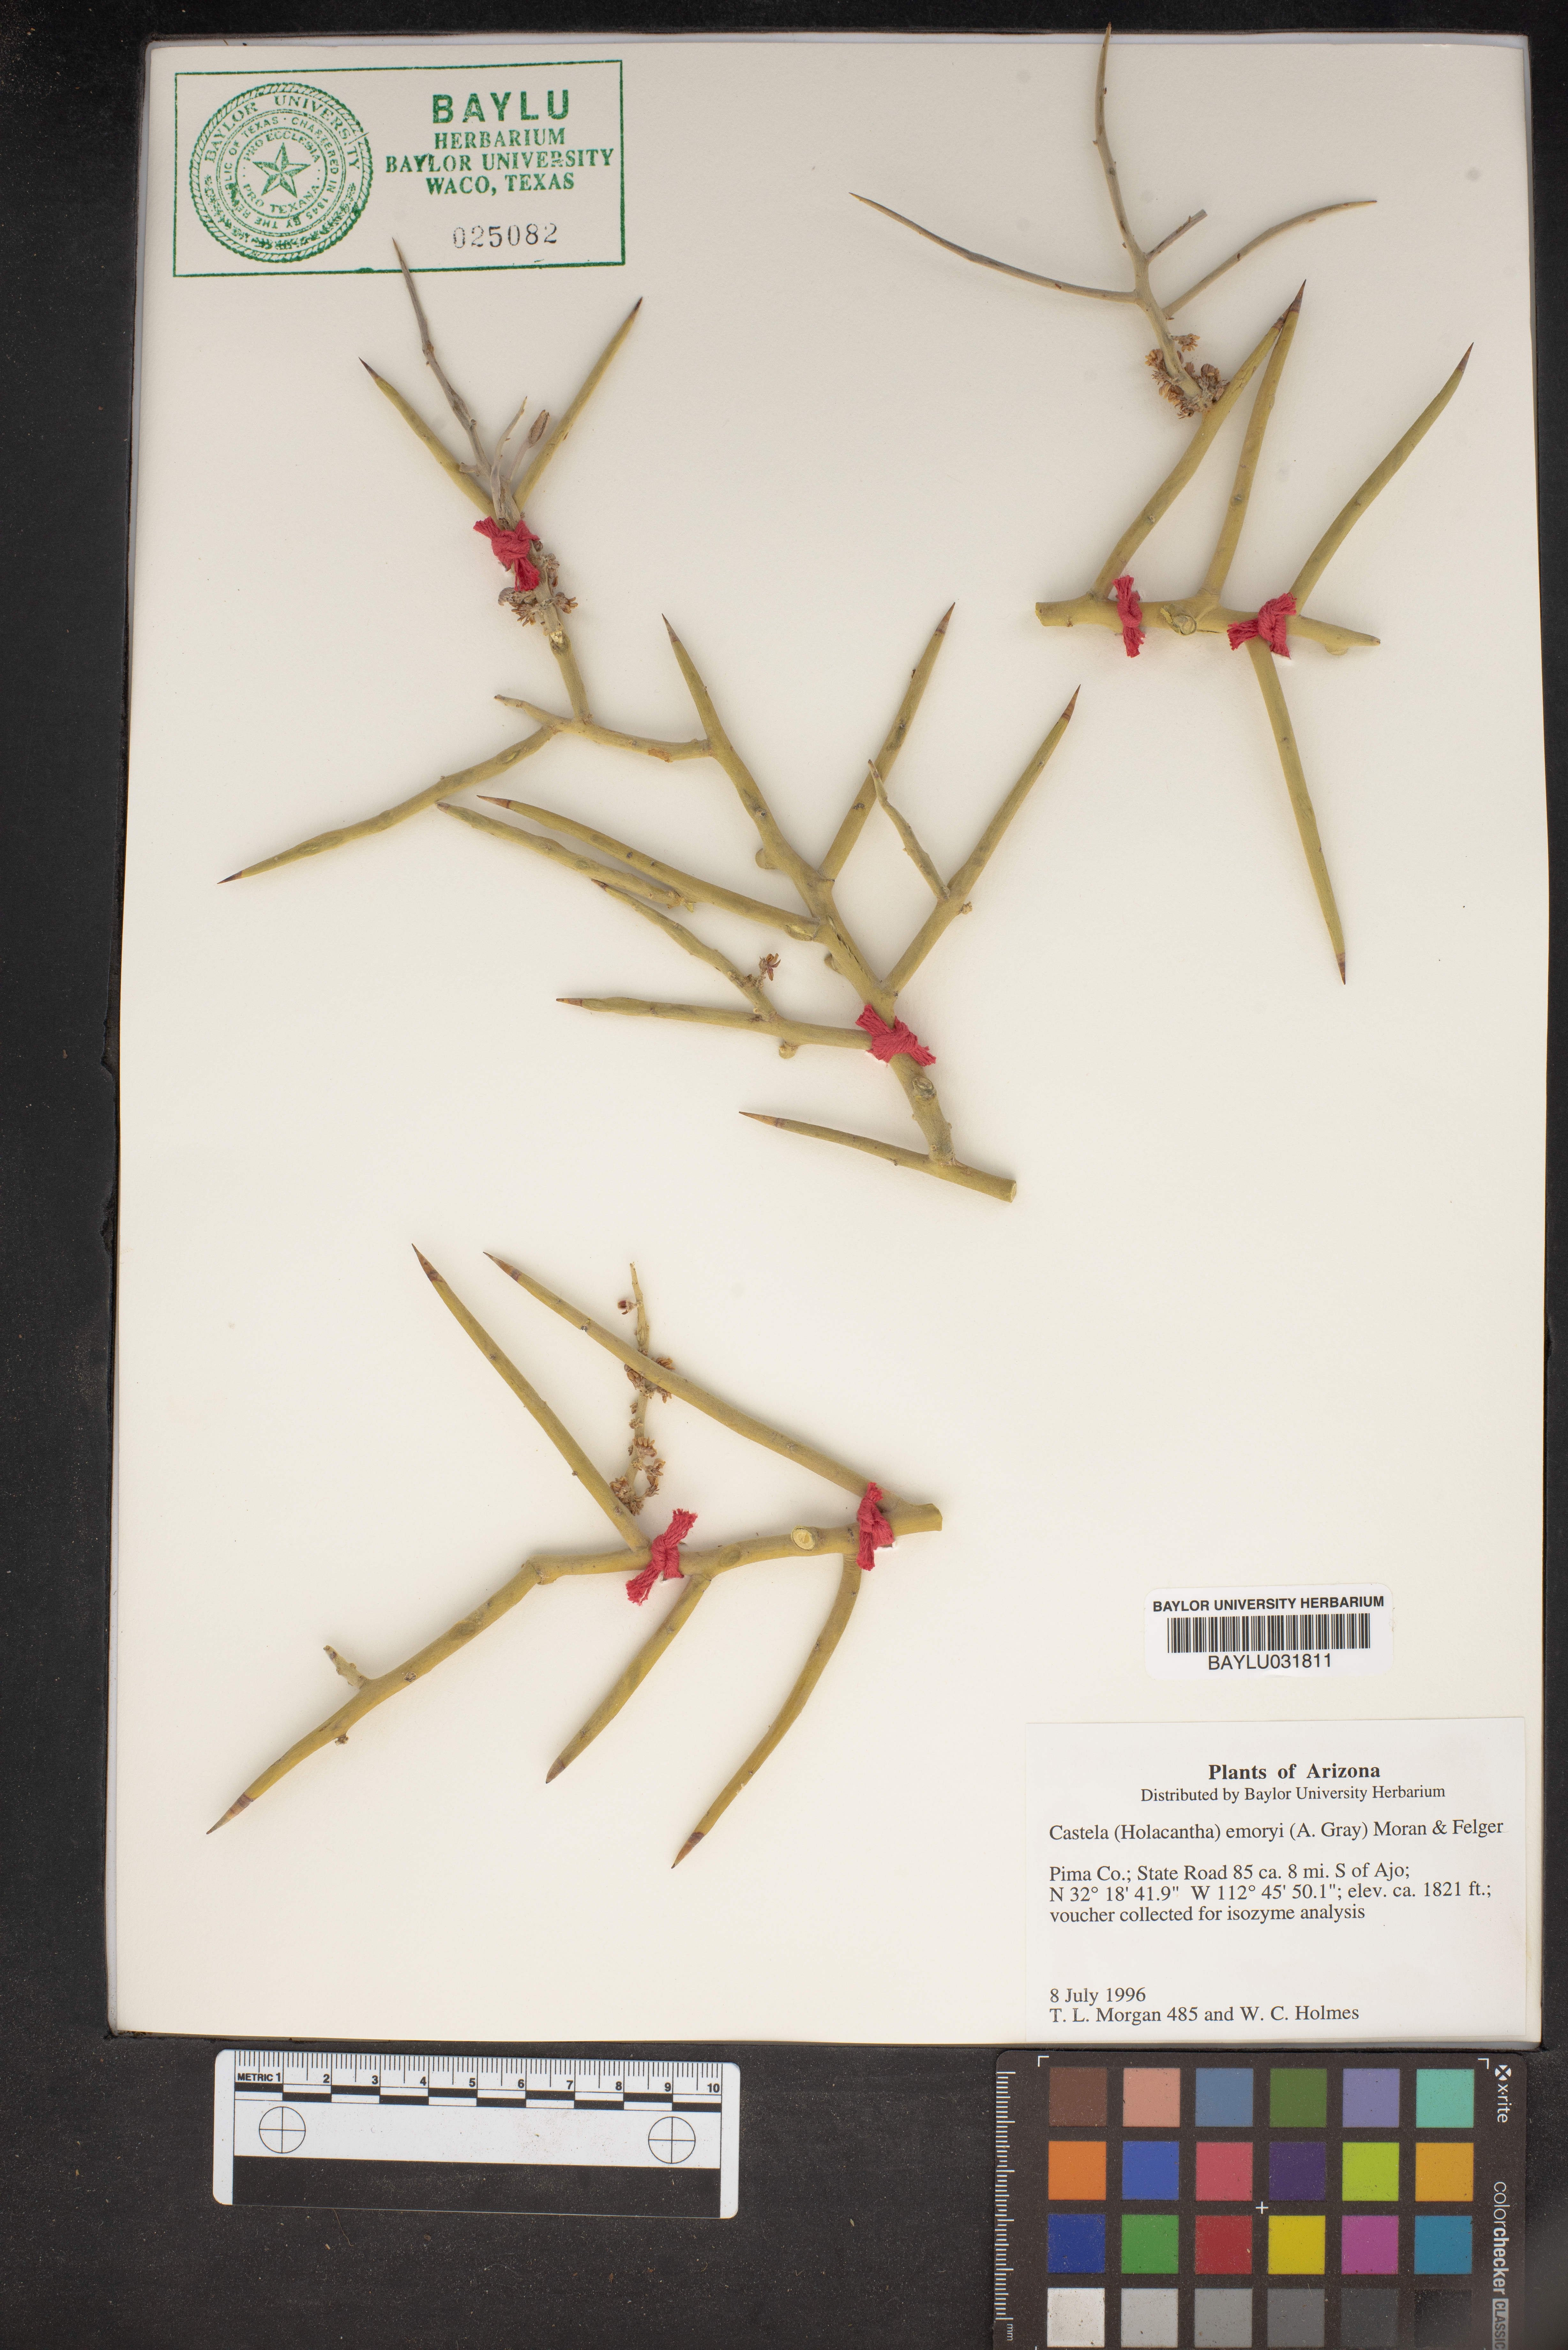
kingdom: Plantae
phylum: Tracheophyta
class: Magnoliopsida
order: Sapindales
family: Simaroubaceae
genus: Holacantha
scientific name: Holacantha emoryi
